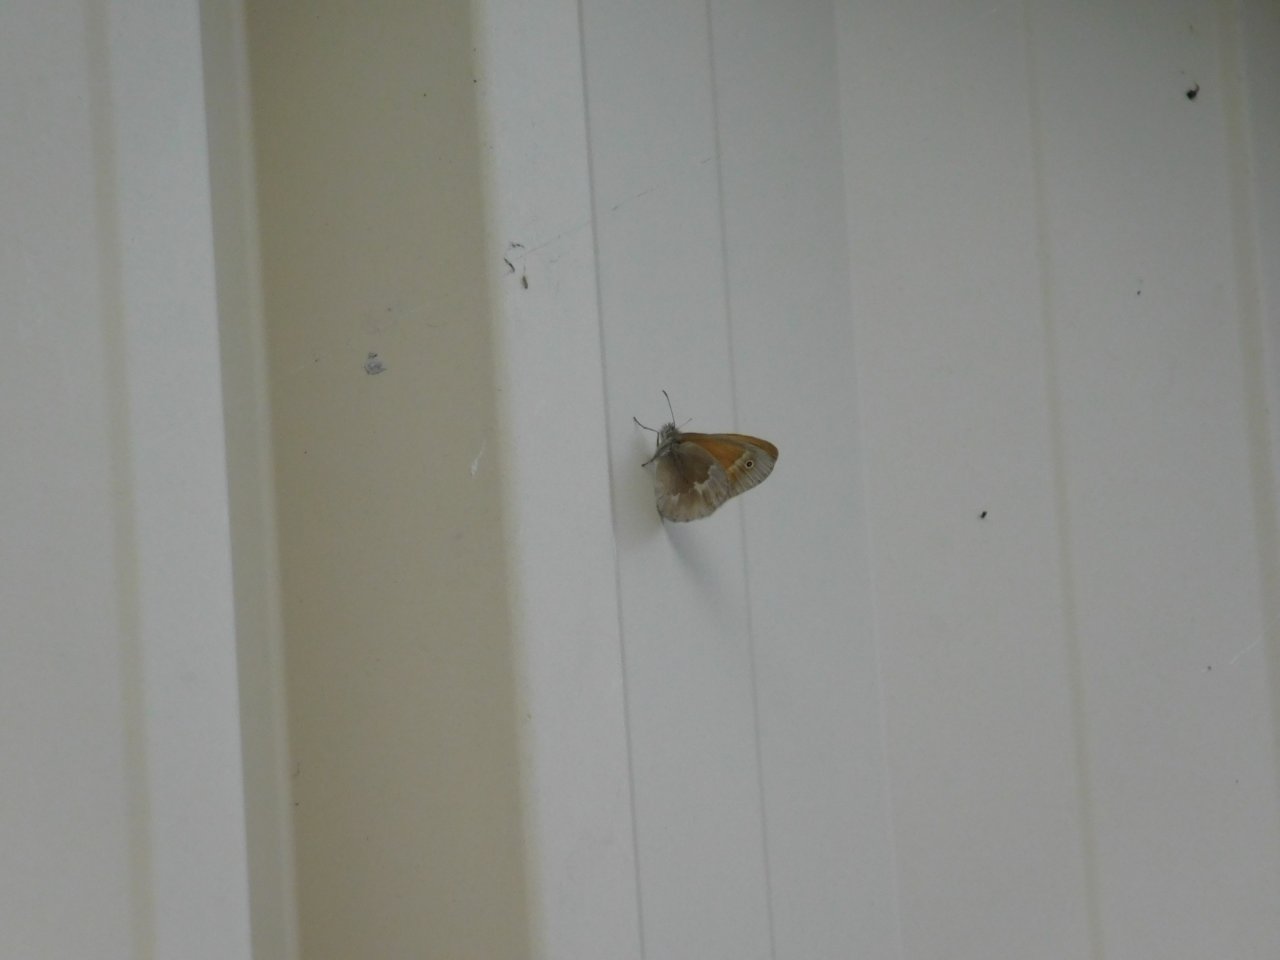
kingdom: Animalia
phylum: Arthropoda
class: Insecta
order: Lepidoptera
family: Nymphalidae
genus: Coenonympha
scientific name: Coenonympha tullia
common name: Large Heath
